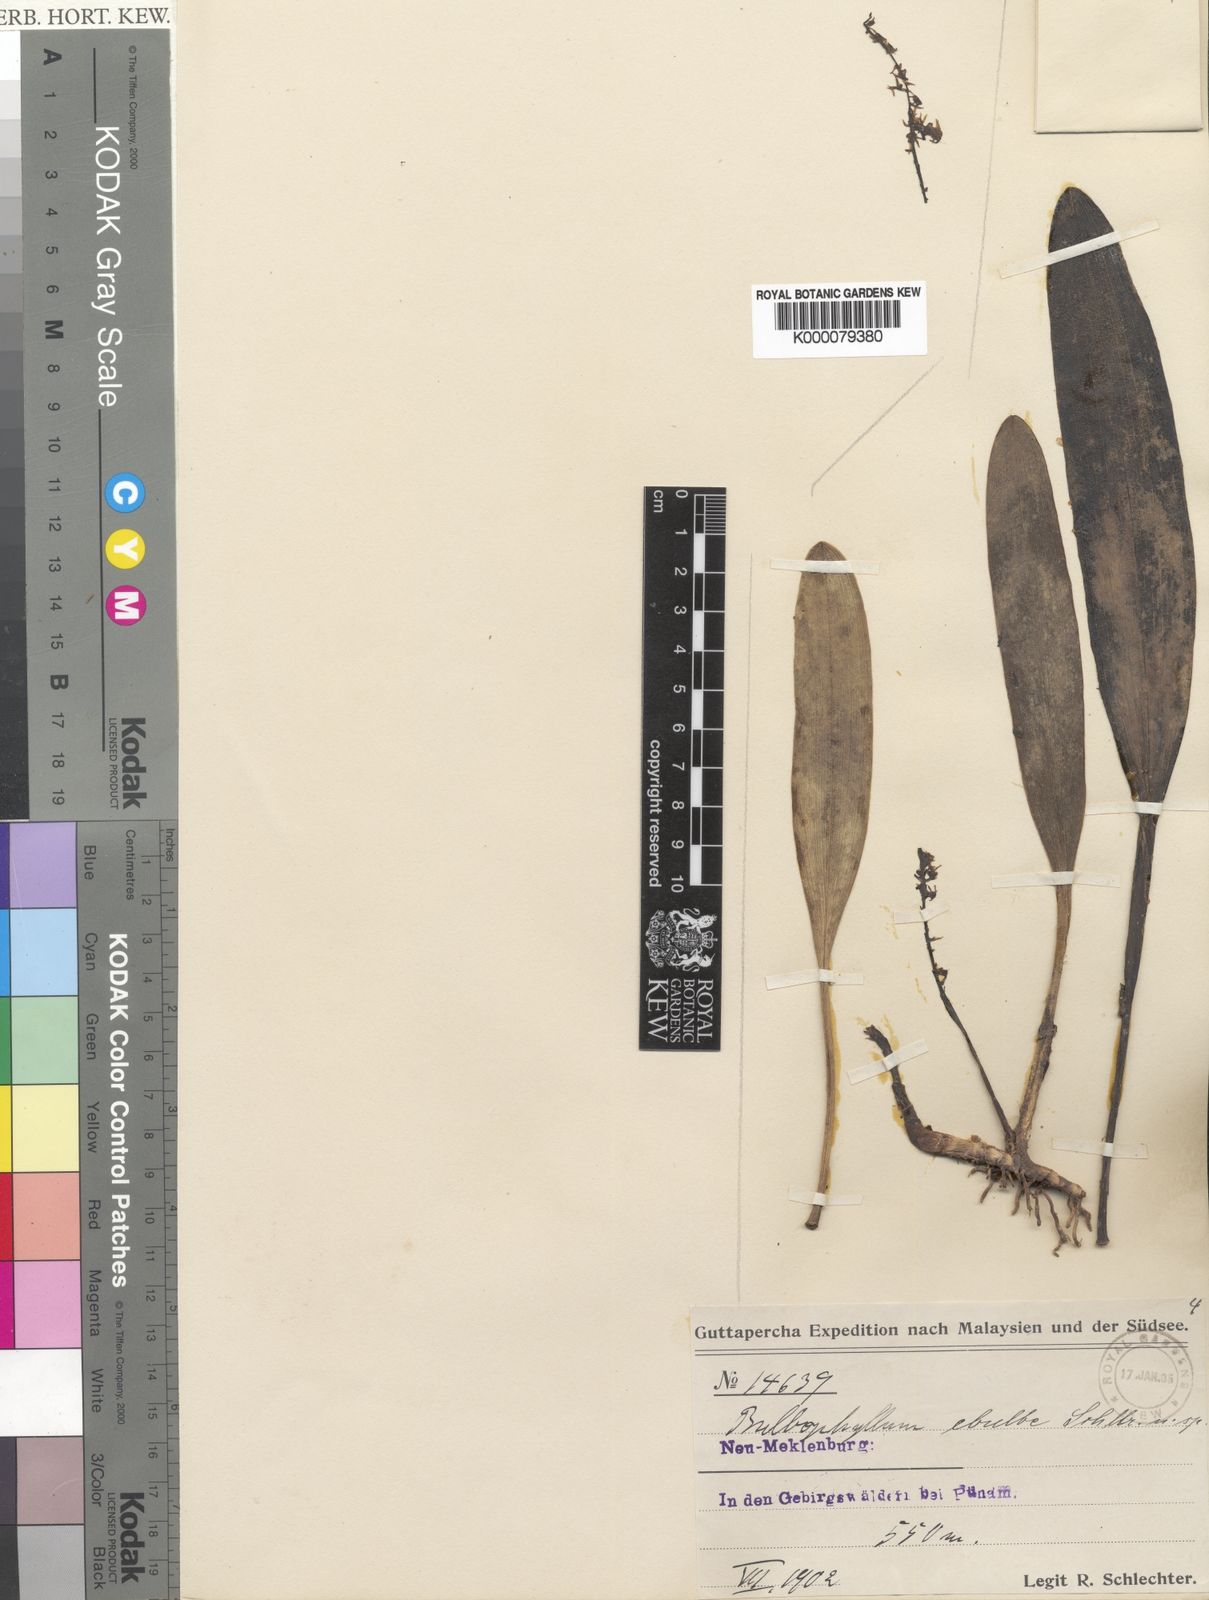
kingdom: Plantae
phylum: Tracheophyta
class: Liliopsida
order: Asparagales
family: Orchidaceae
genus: Bulbophyllum
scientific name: Bulbophyllum apodum
